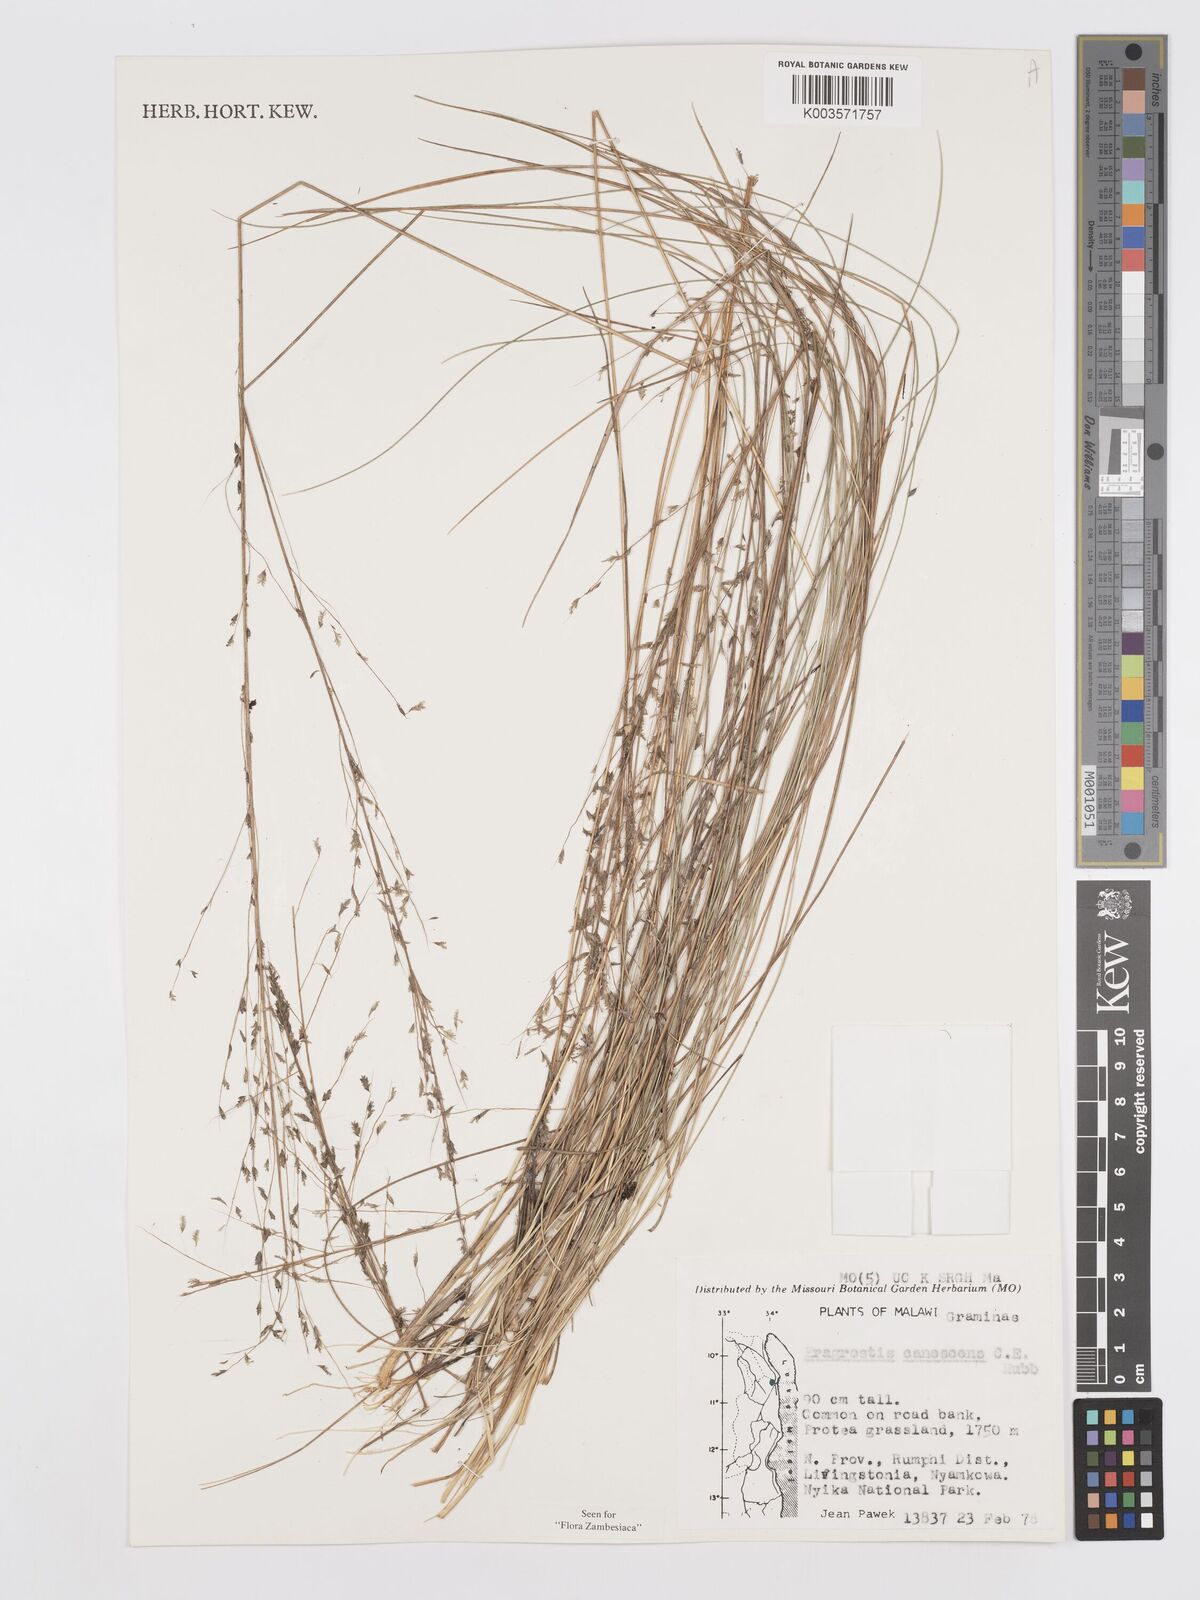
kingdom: Plantae
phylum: Tracheophyta
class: Liliopsida
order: Poales
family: Poaceae
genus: Eragrostis
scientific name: Eragrostis canescens
